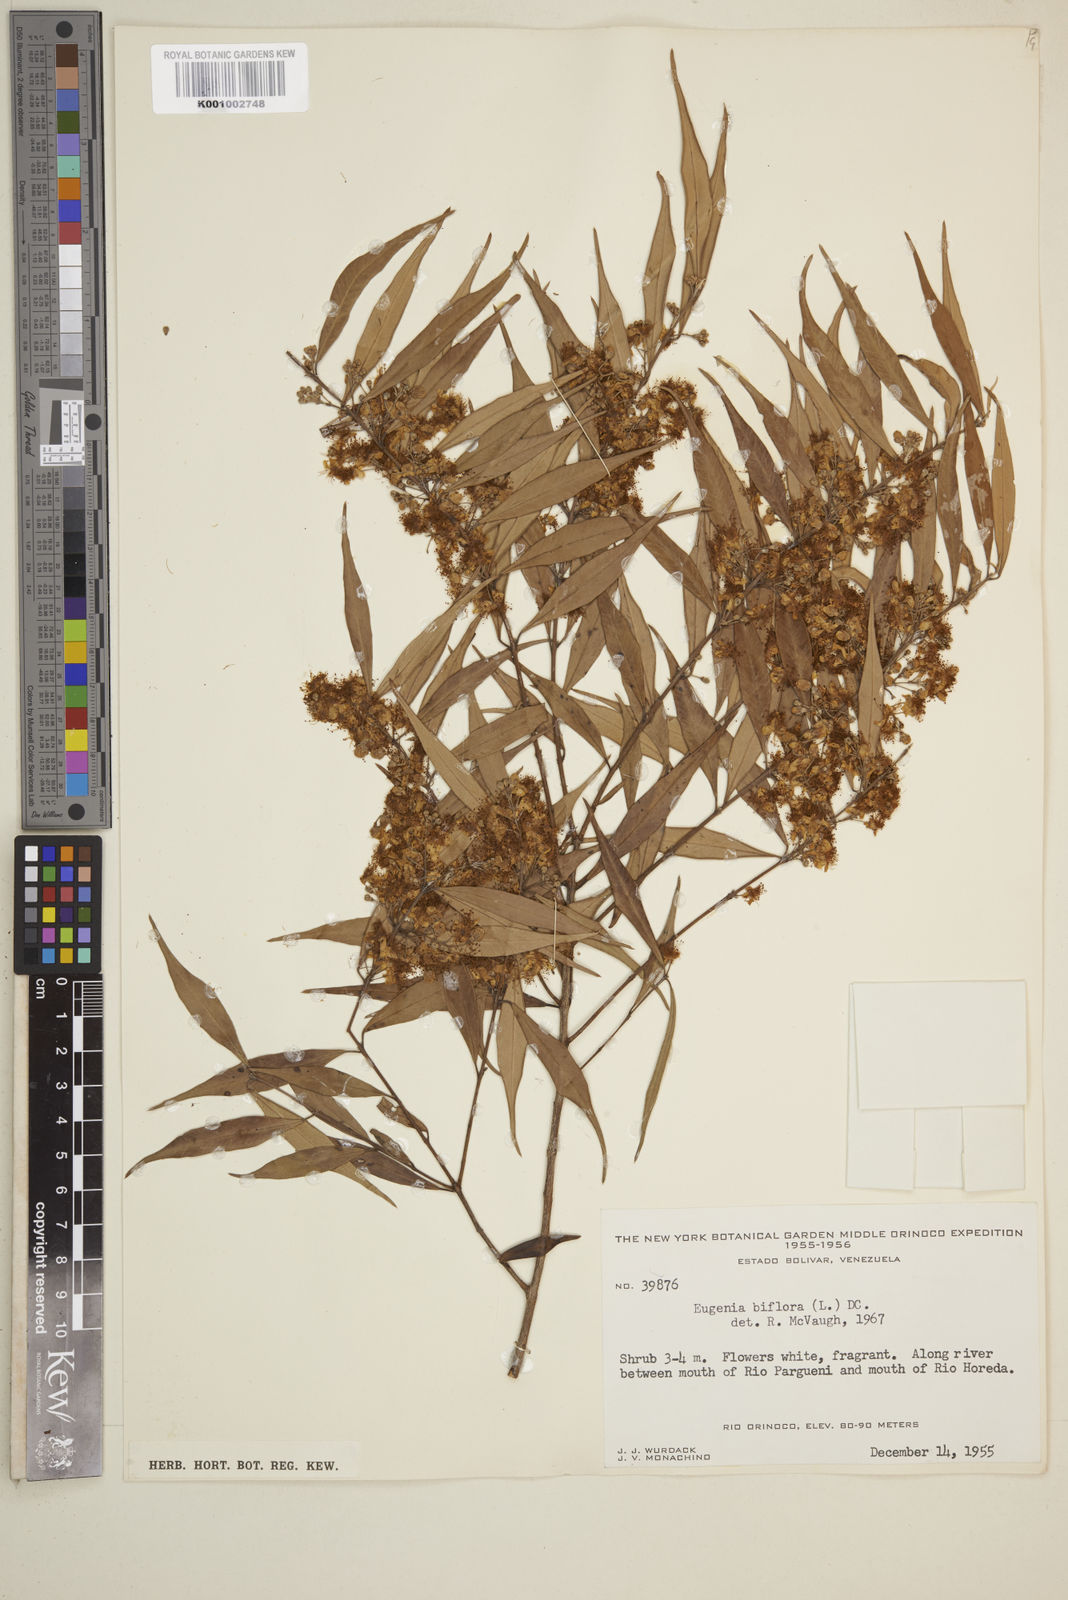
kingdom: Plantae
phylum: Tracheophyta
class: Magnoliopsida
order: Myrtales
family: Myrtaceae
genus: Eugenia
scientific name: Eugenia biflora
